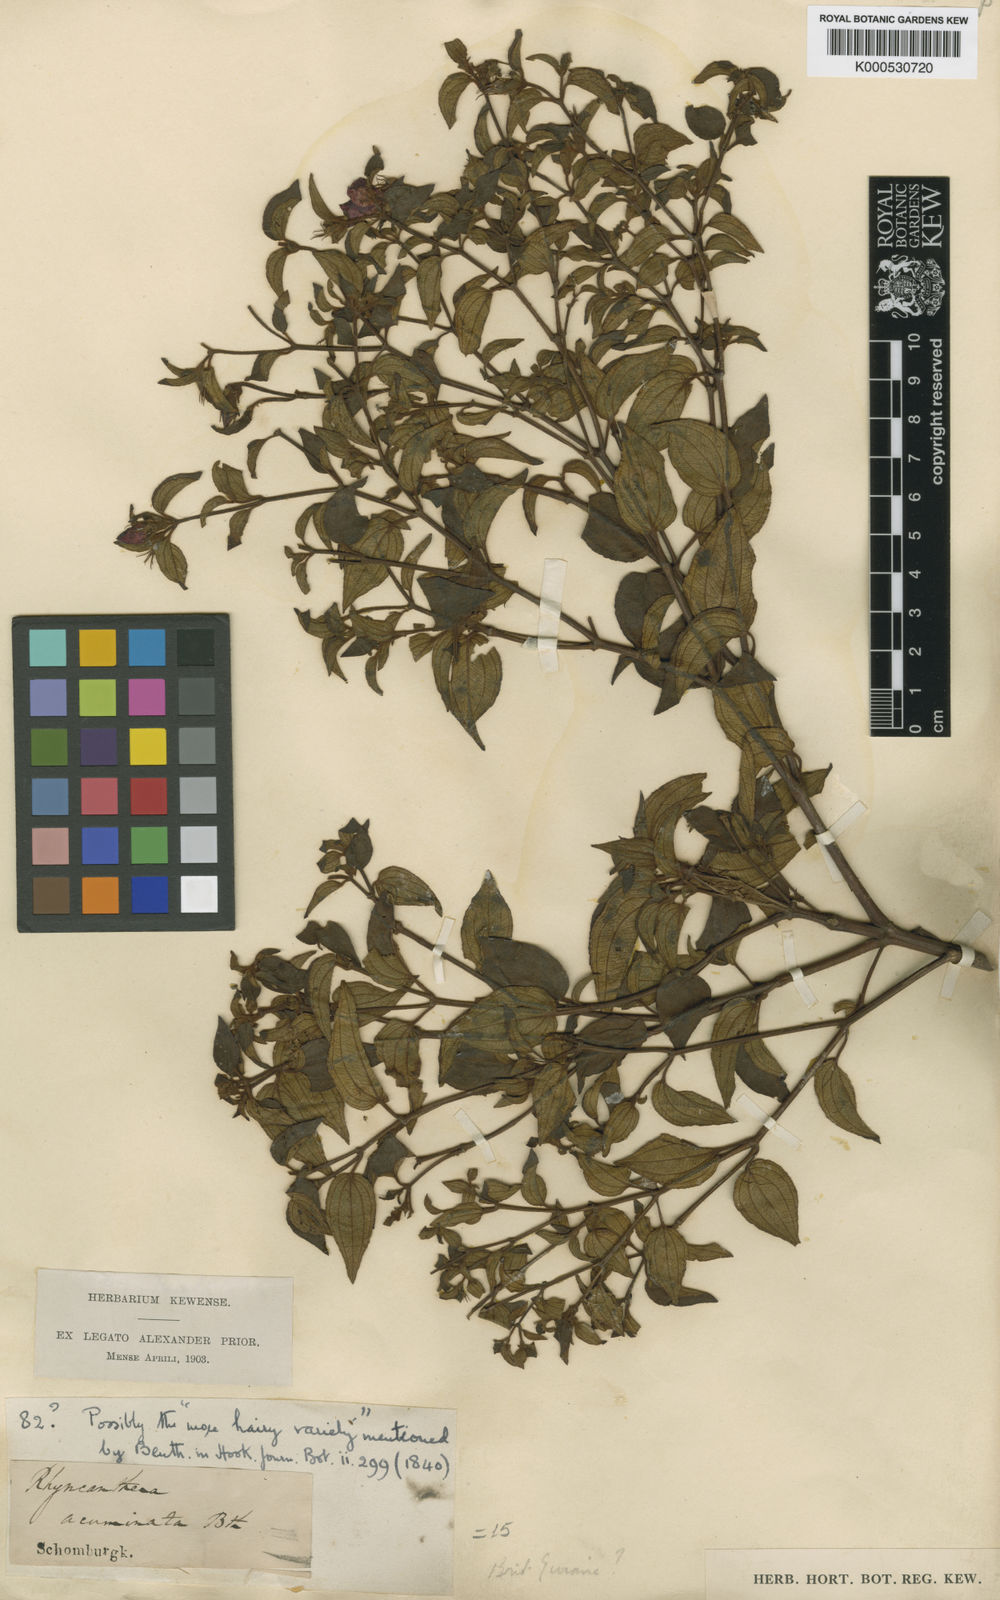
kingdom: Plantae
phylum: Tracheophyta
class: Magnoliopsida
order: Myrtales
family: Melastomataceae
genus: Rhynchanthera
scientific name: Rhynchanthera grandiflora
